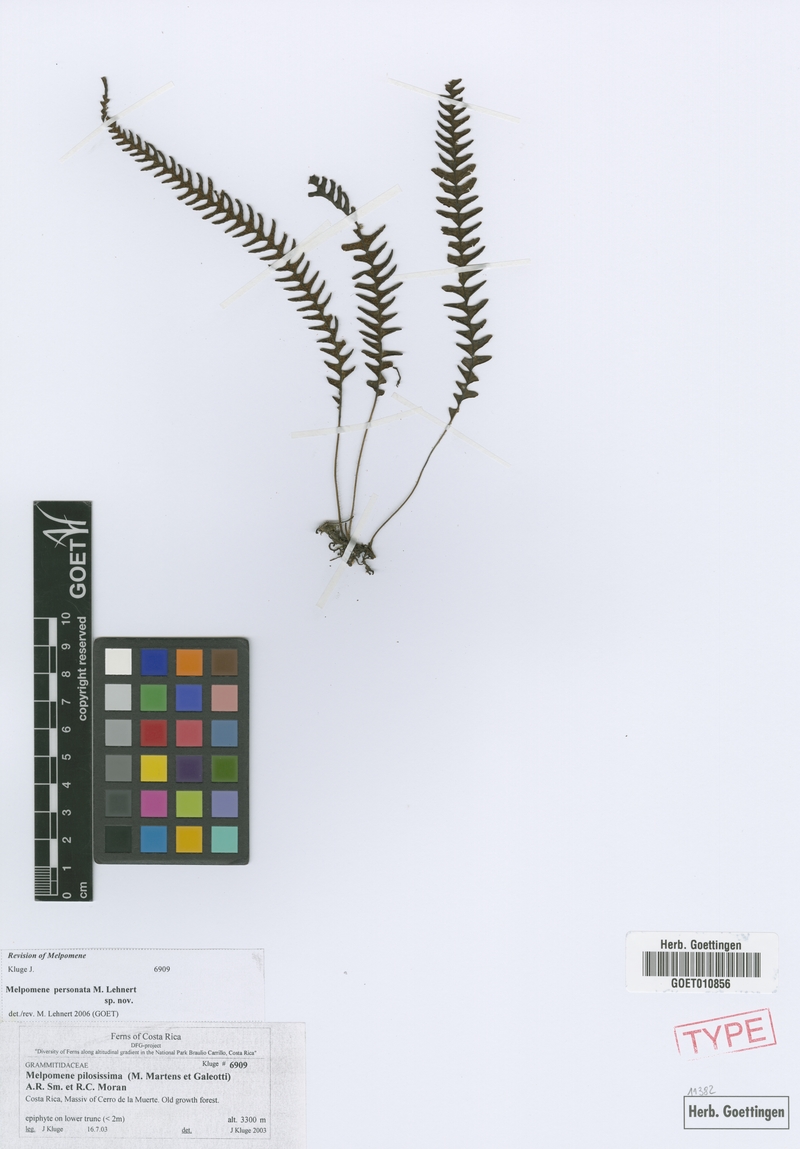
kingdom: Plantae
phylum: Tracheophyta
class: Polypodiopsida
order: Polypodiales
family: Polypodiaceae
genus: Melpomene
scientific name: Melpomene personata
